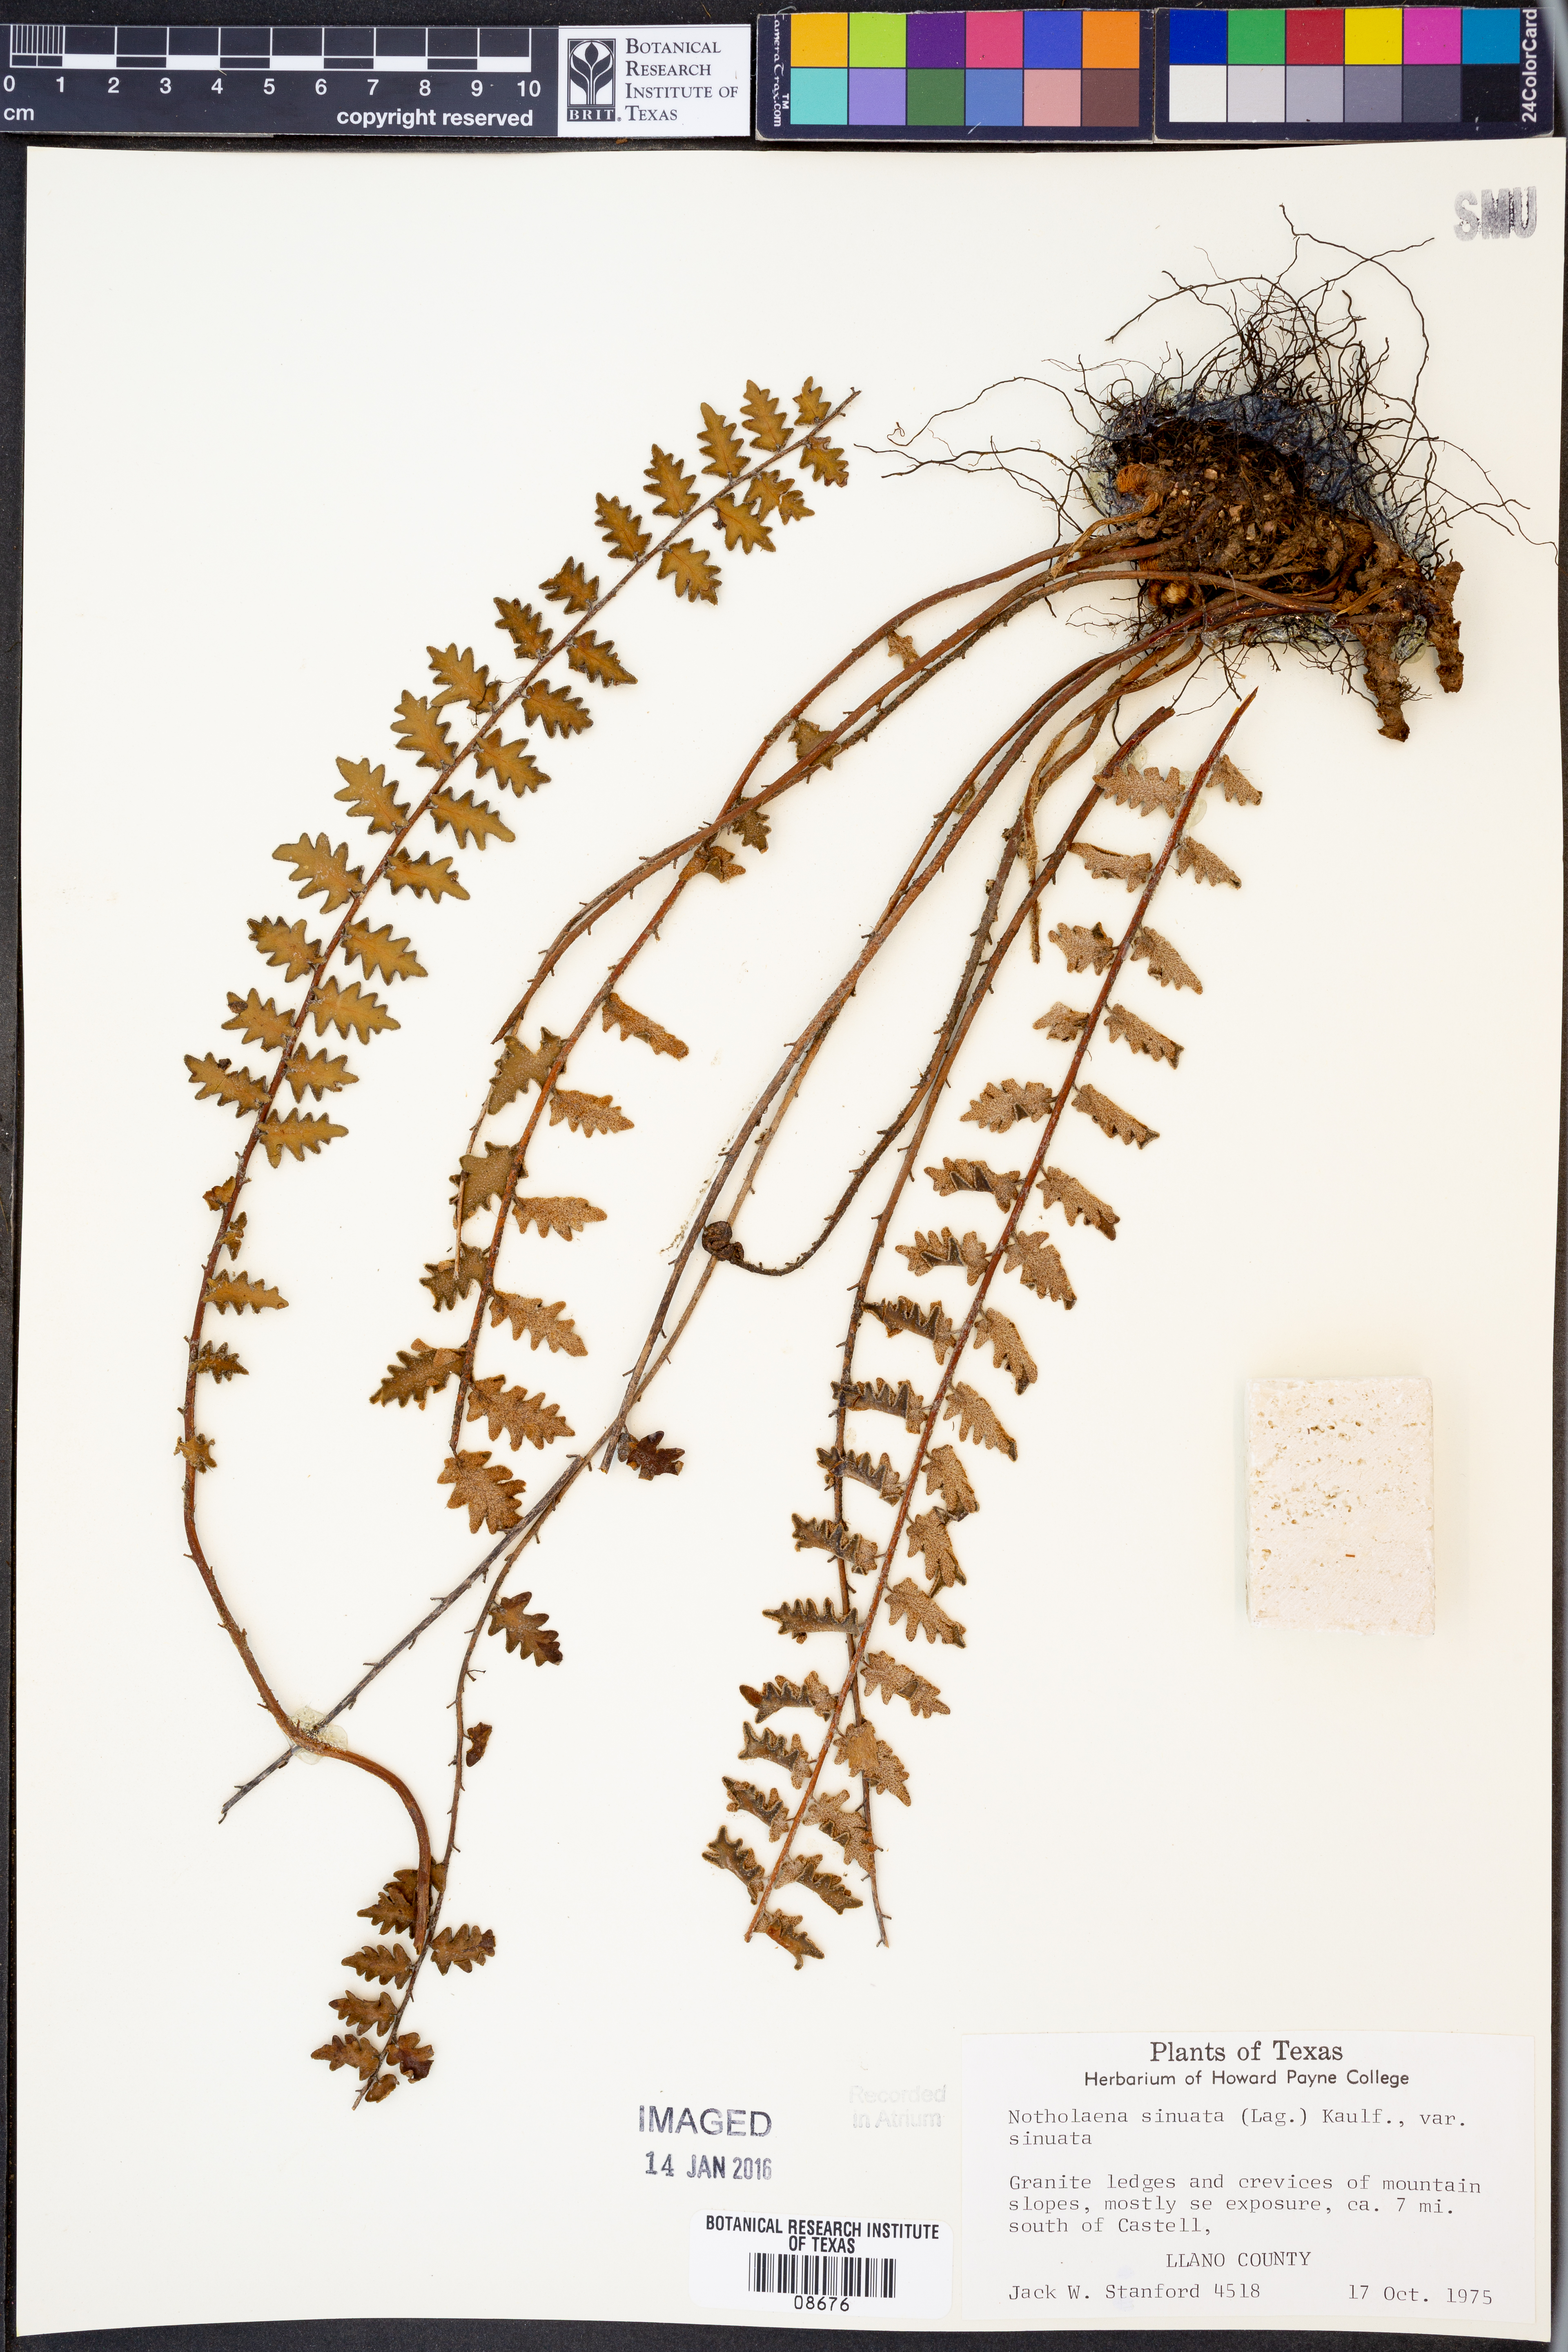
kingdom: Plantae
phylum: Tracheophyta
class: Polypodiopsida
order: Polypodiales
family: Pteridaceae
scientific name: Pteridaceae
